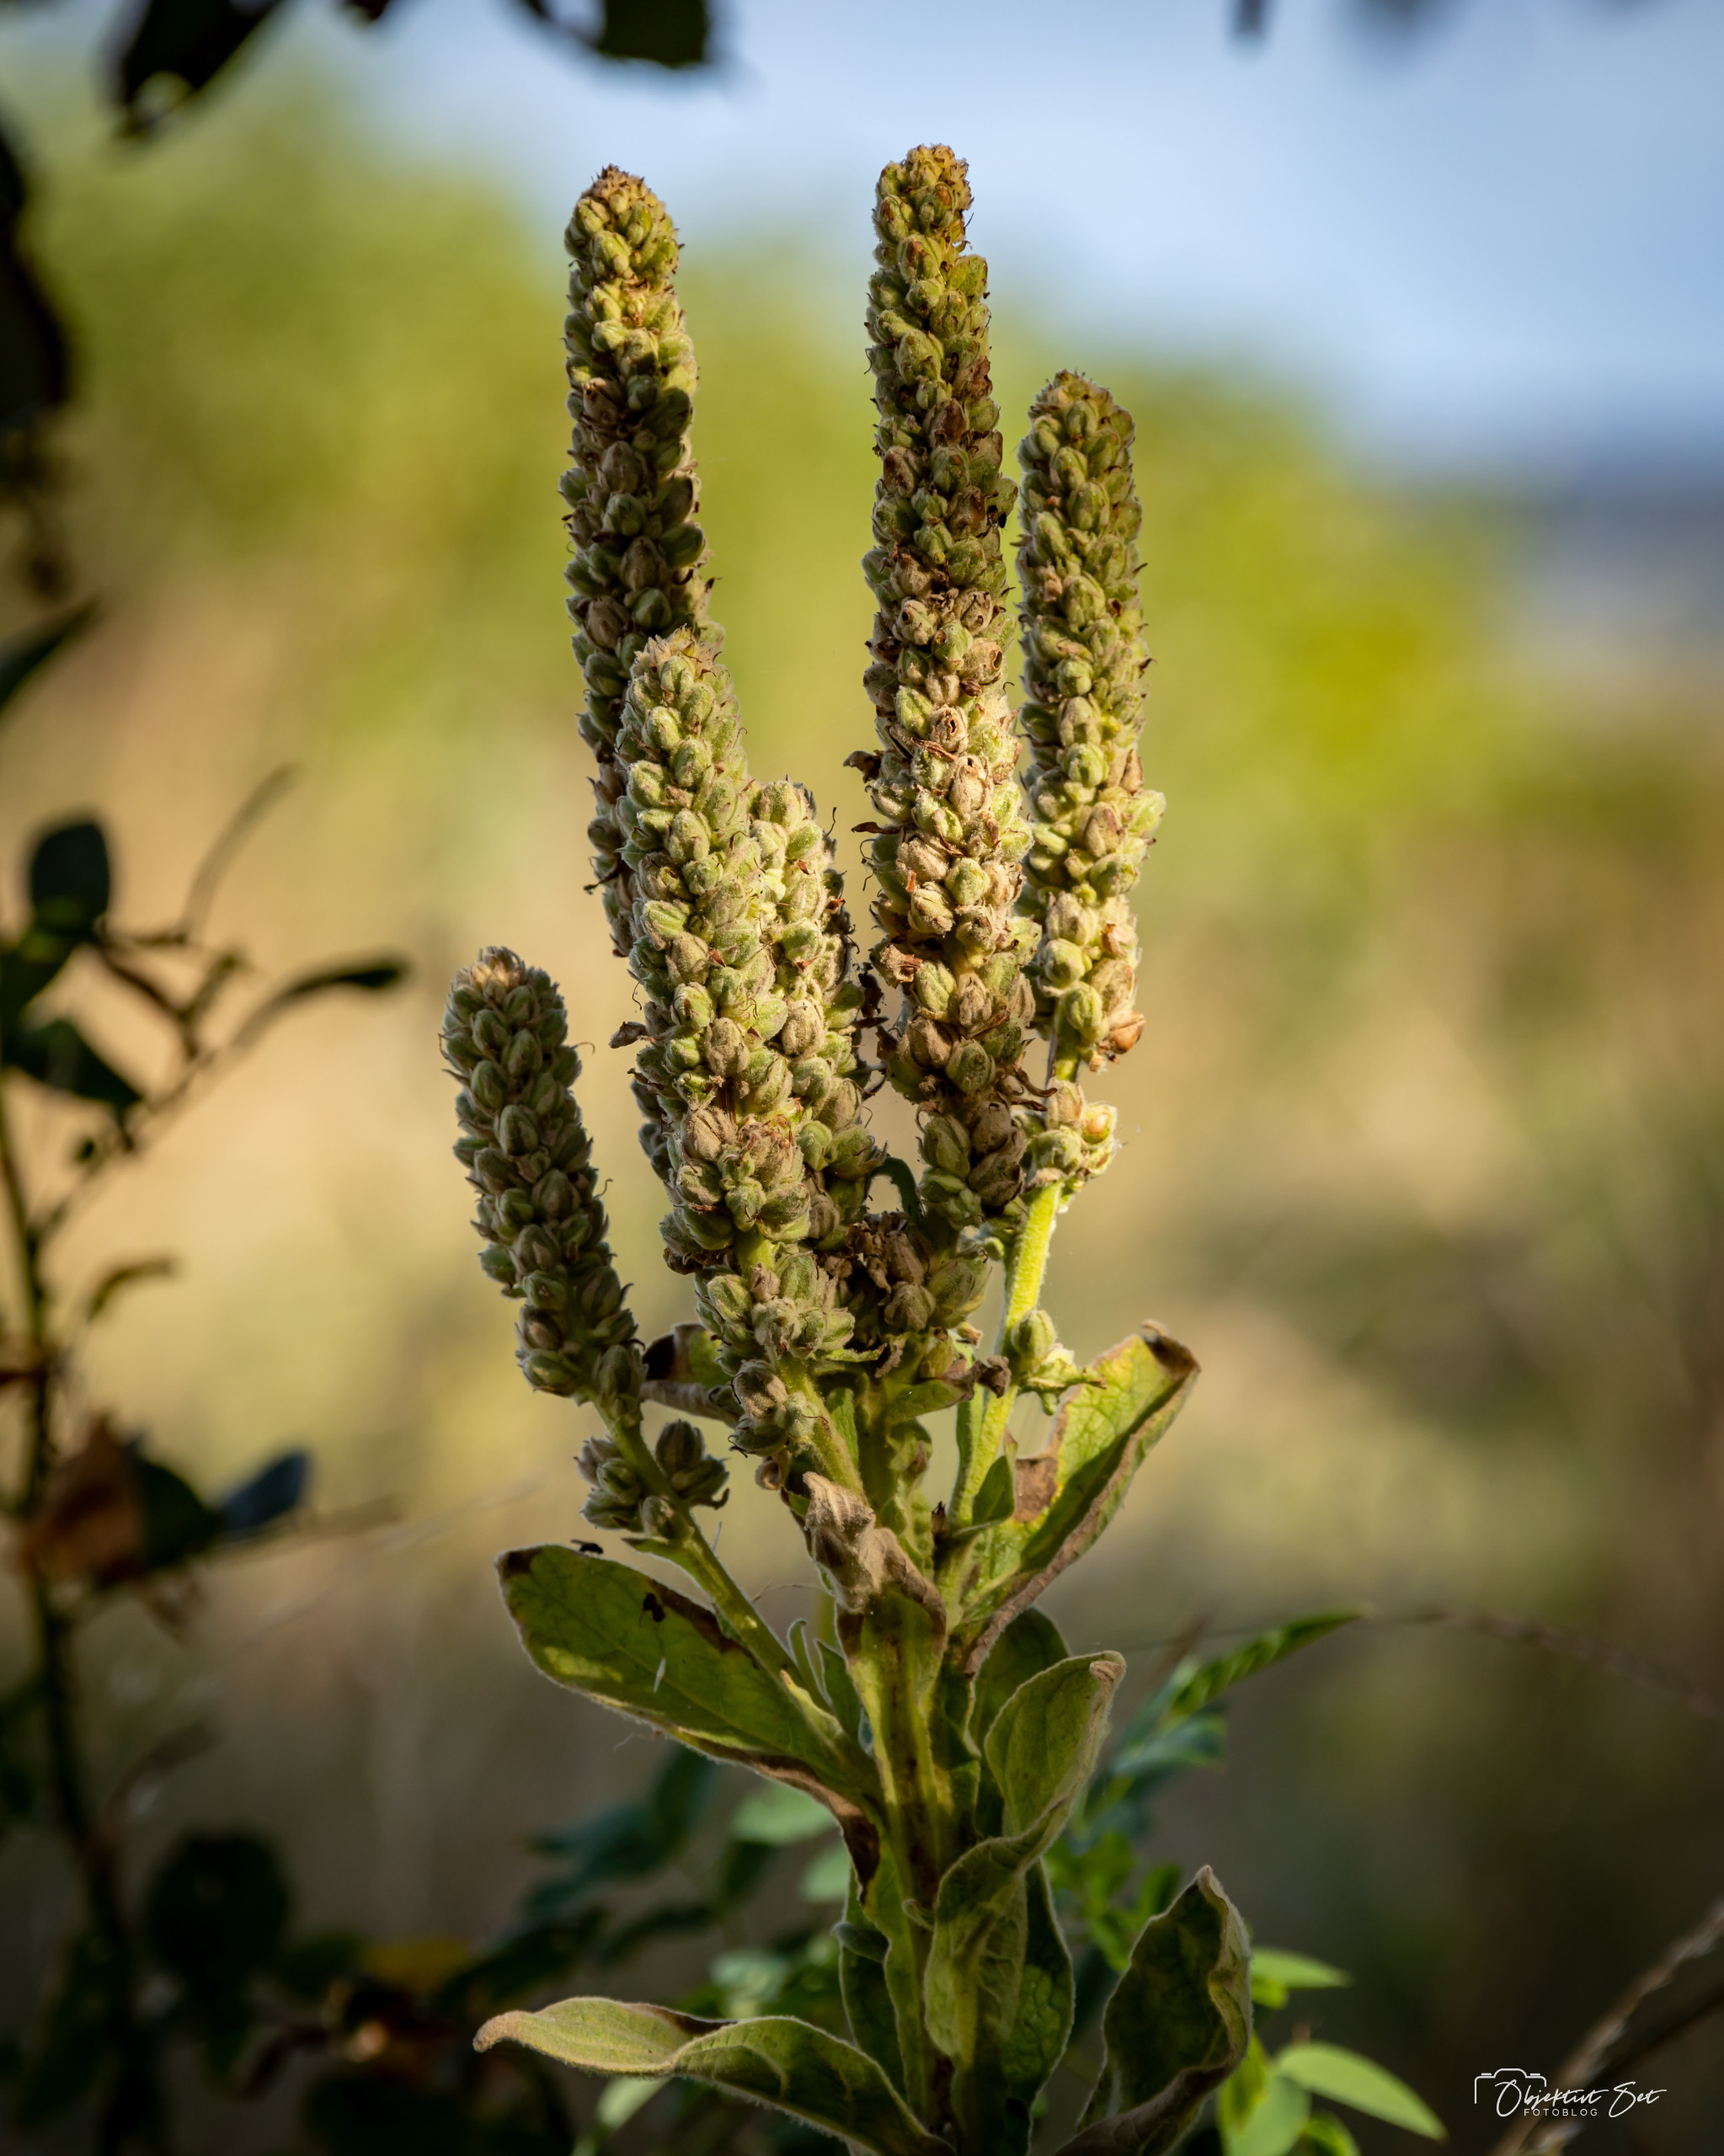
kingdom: Plantae
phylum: Tracheophyta
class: Magnoliopsida
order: Lamiales
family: Scrophulariaceae
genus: Verbascum
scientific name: Verbascum thapsus
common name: Filtbladet kongelys
